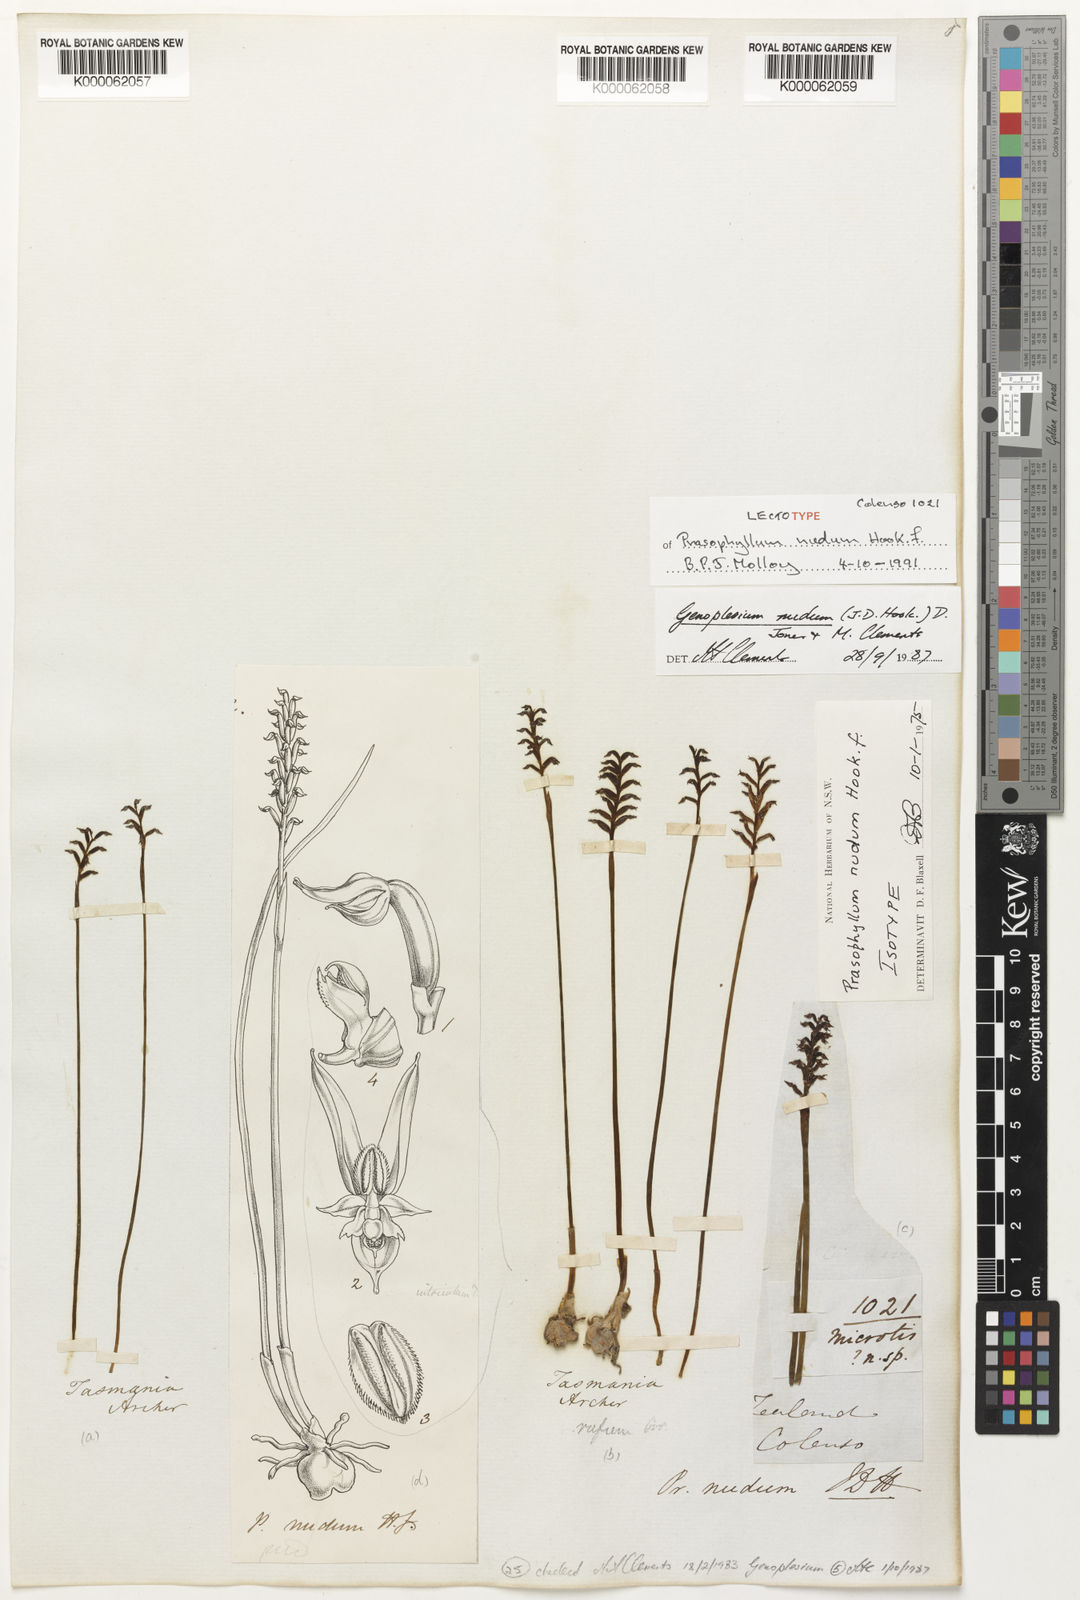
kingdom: Plantae
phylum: Tracheophyta
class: Liliopsida
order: Asparagales
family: Orchidaceae
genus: Genoplesium
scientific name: Genoplesium nudum
